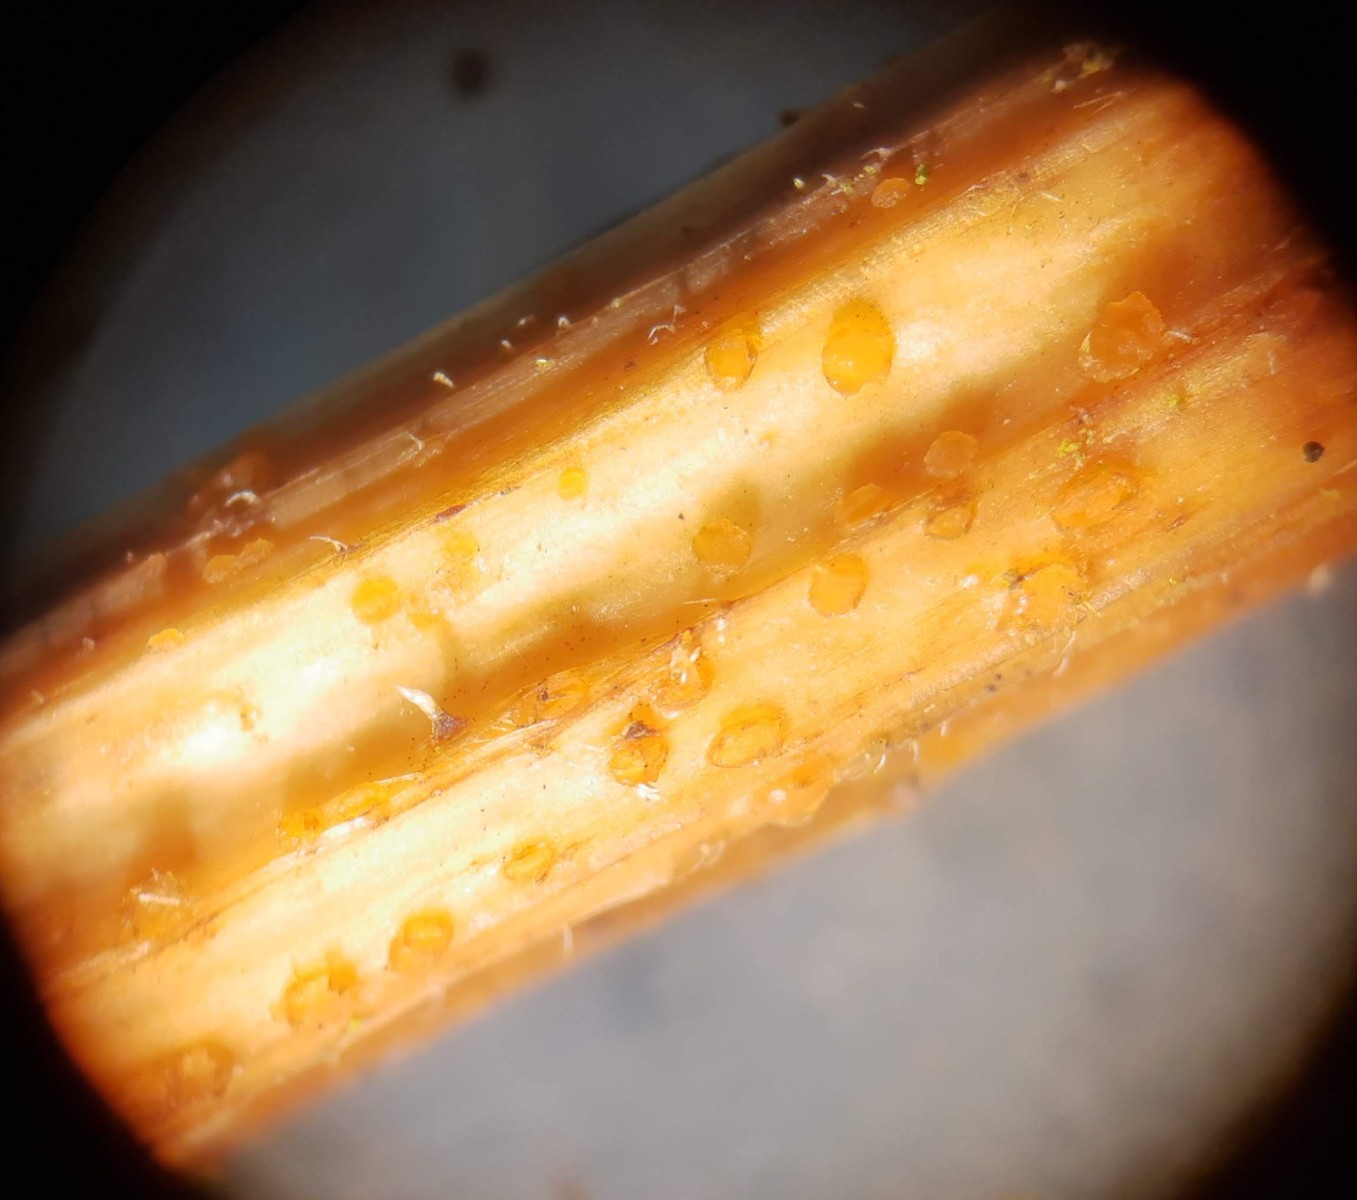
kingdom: Fungi
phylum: Ascomycota
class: Leotiomycetes
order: Helotiales
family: Calloriaceae
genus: Calloria
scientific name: Calloria urticae
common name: nælde-orangeskive
